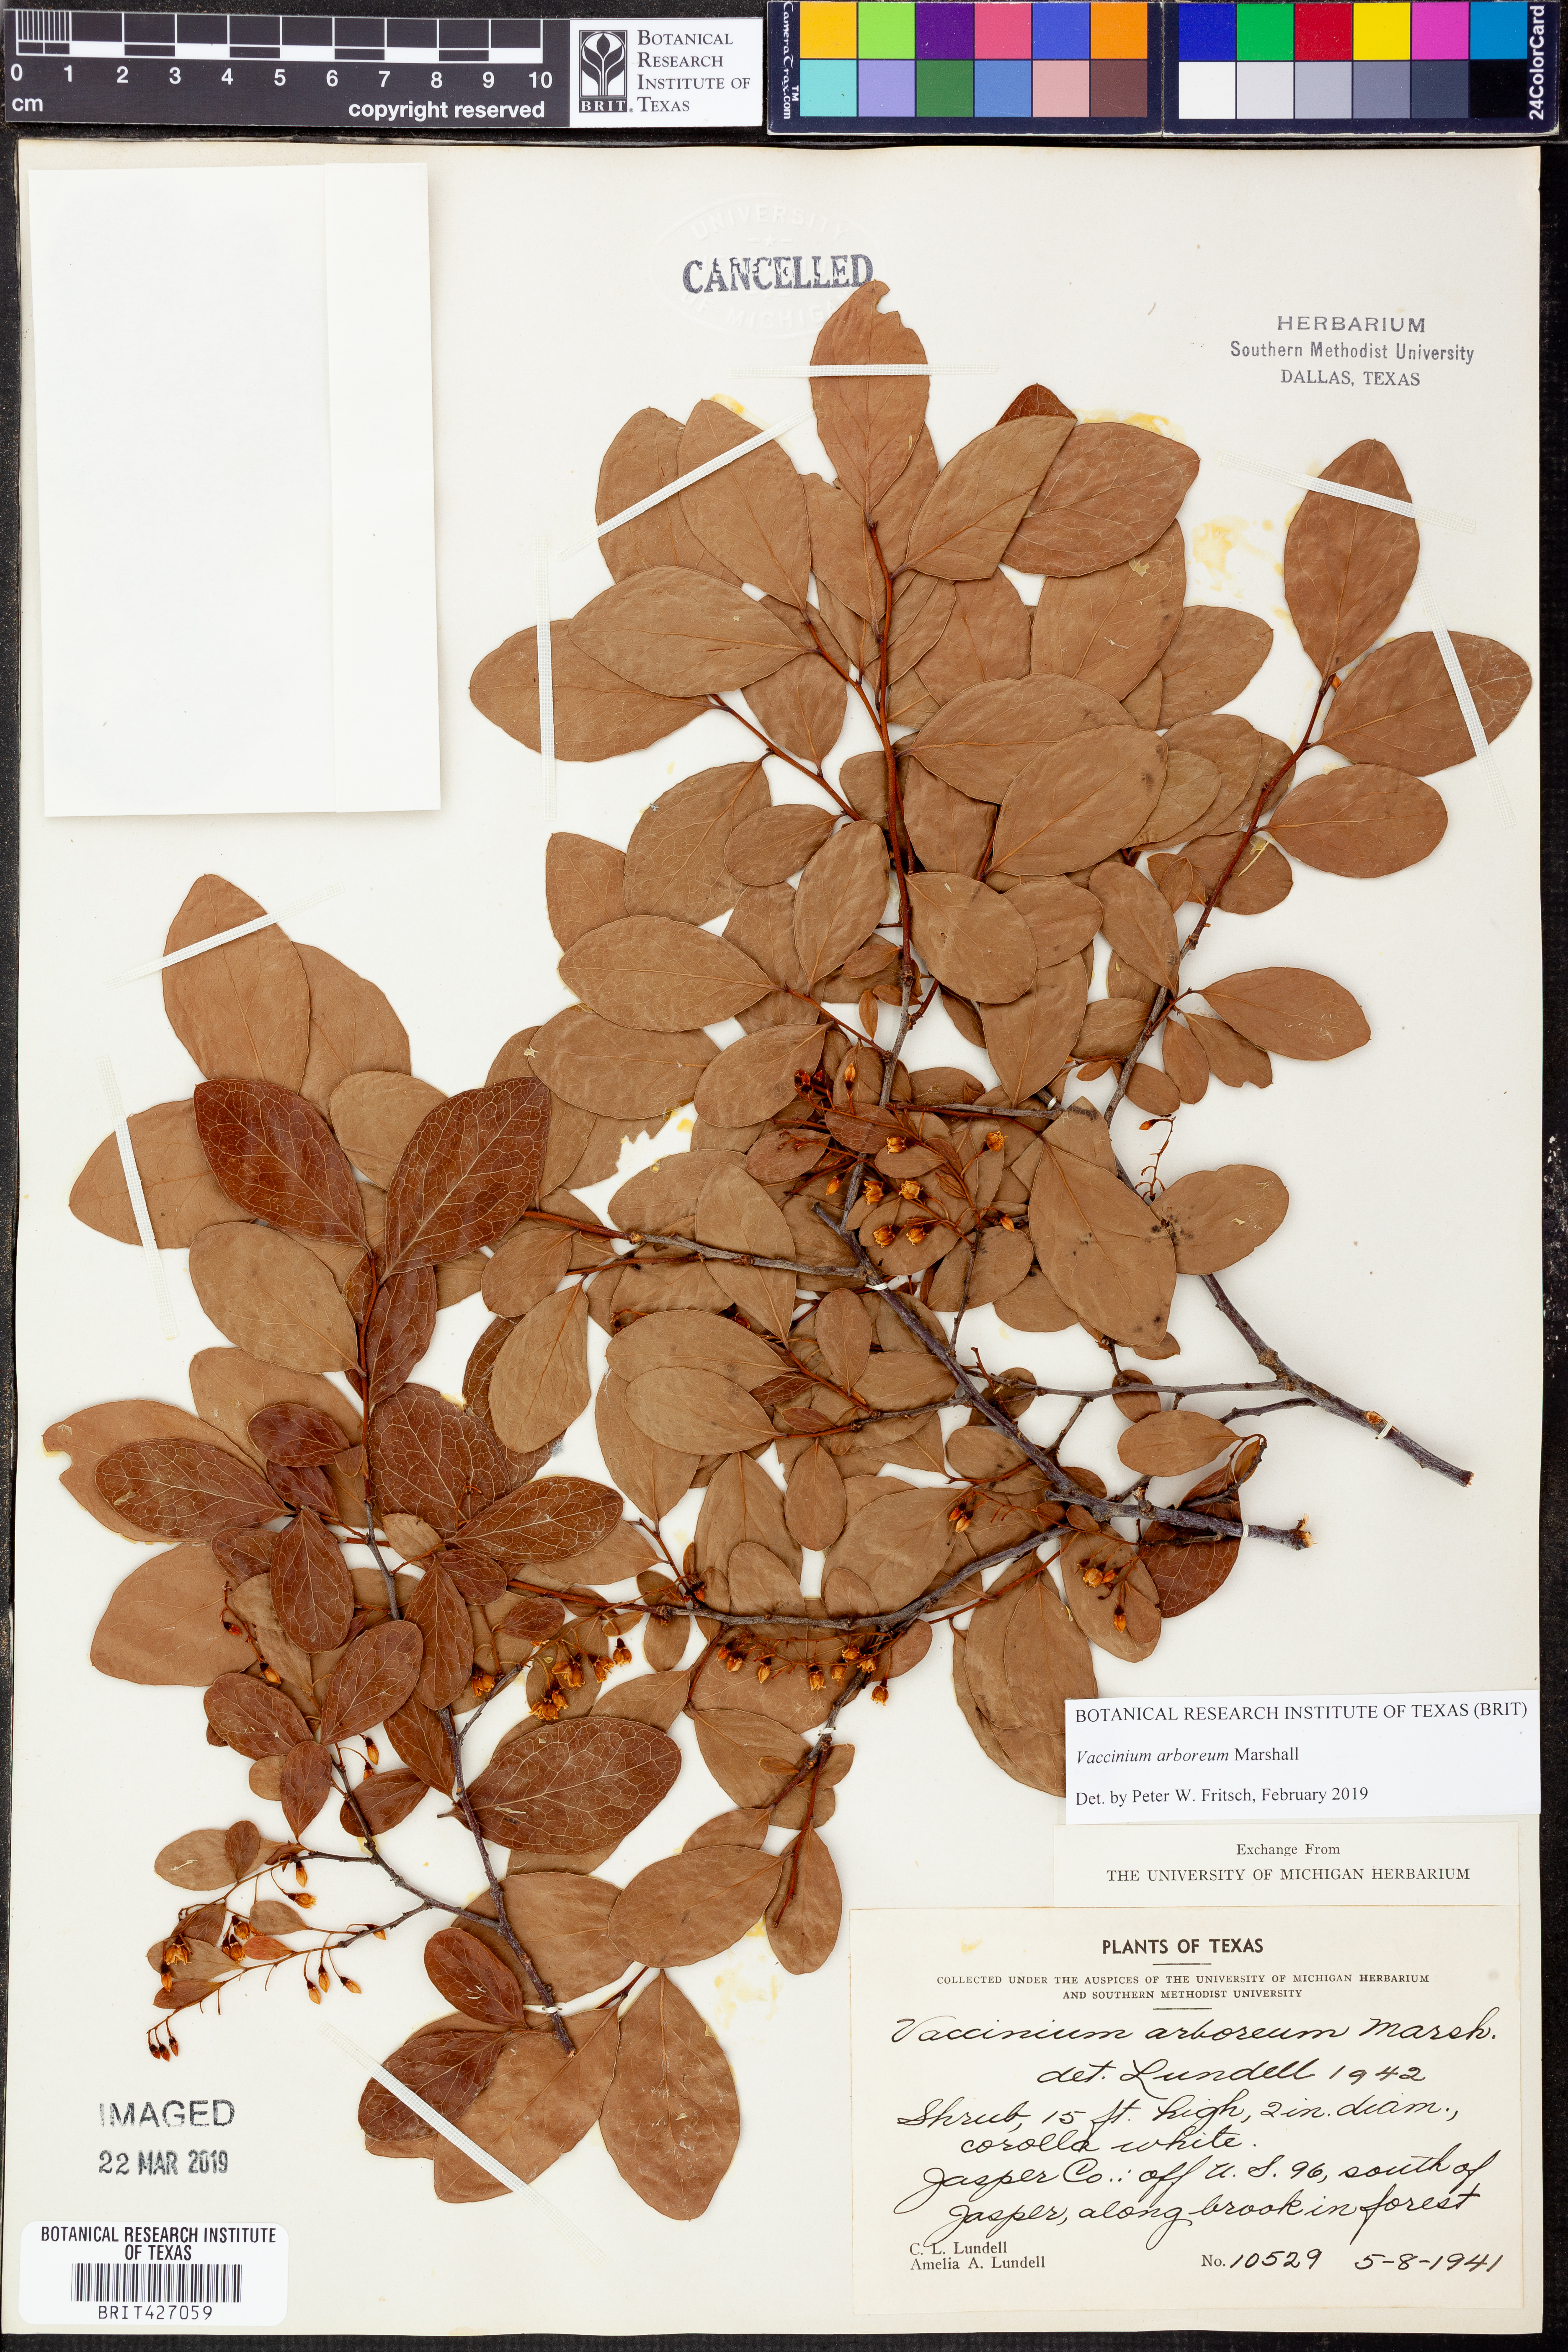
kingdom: Plantae
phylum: Tracheophyta
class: Magnoliopsida
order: Ericales
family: Ericaceae
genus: Vaccinium
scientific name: Vaccinium arboreum
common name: Farkleberry
